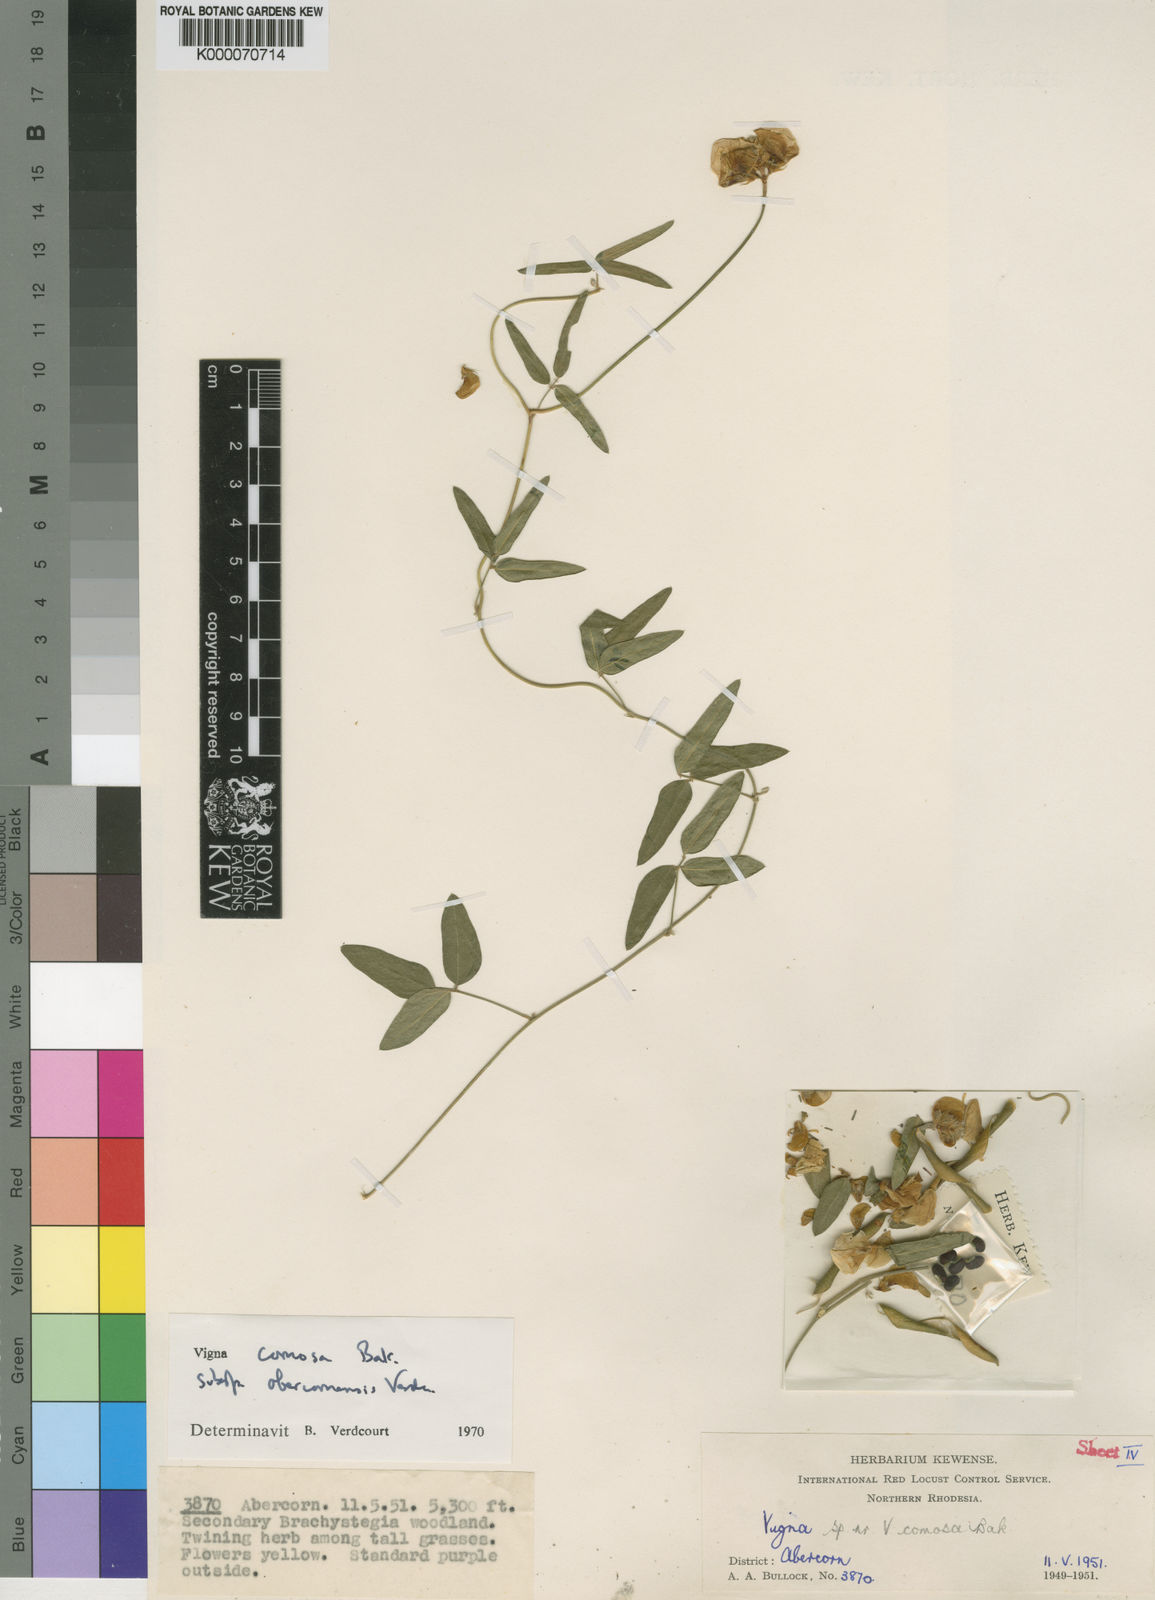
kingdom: Plantae
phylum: Tracheophyta
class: Magnoliopsida
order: Fabales
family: Fabaceae
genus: Vigna
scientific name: Vigna comosa
